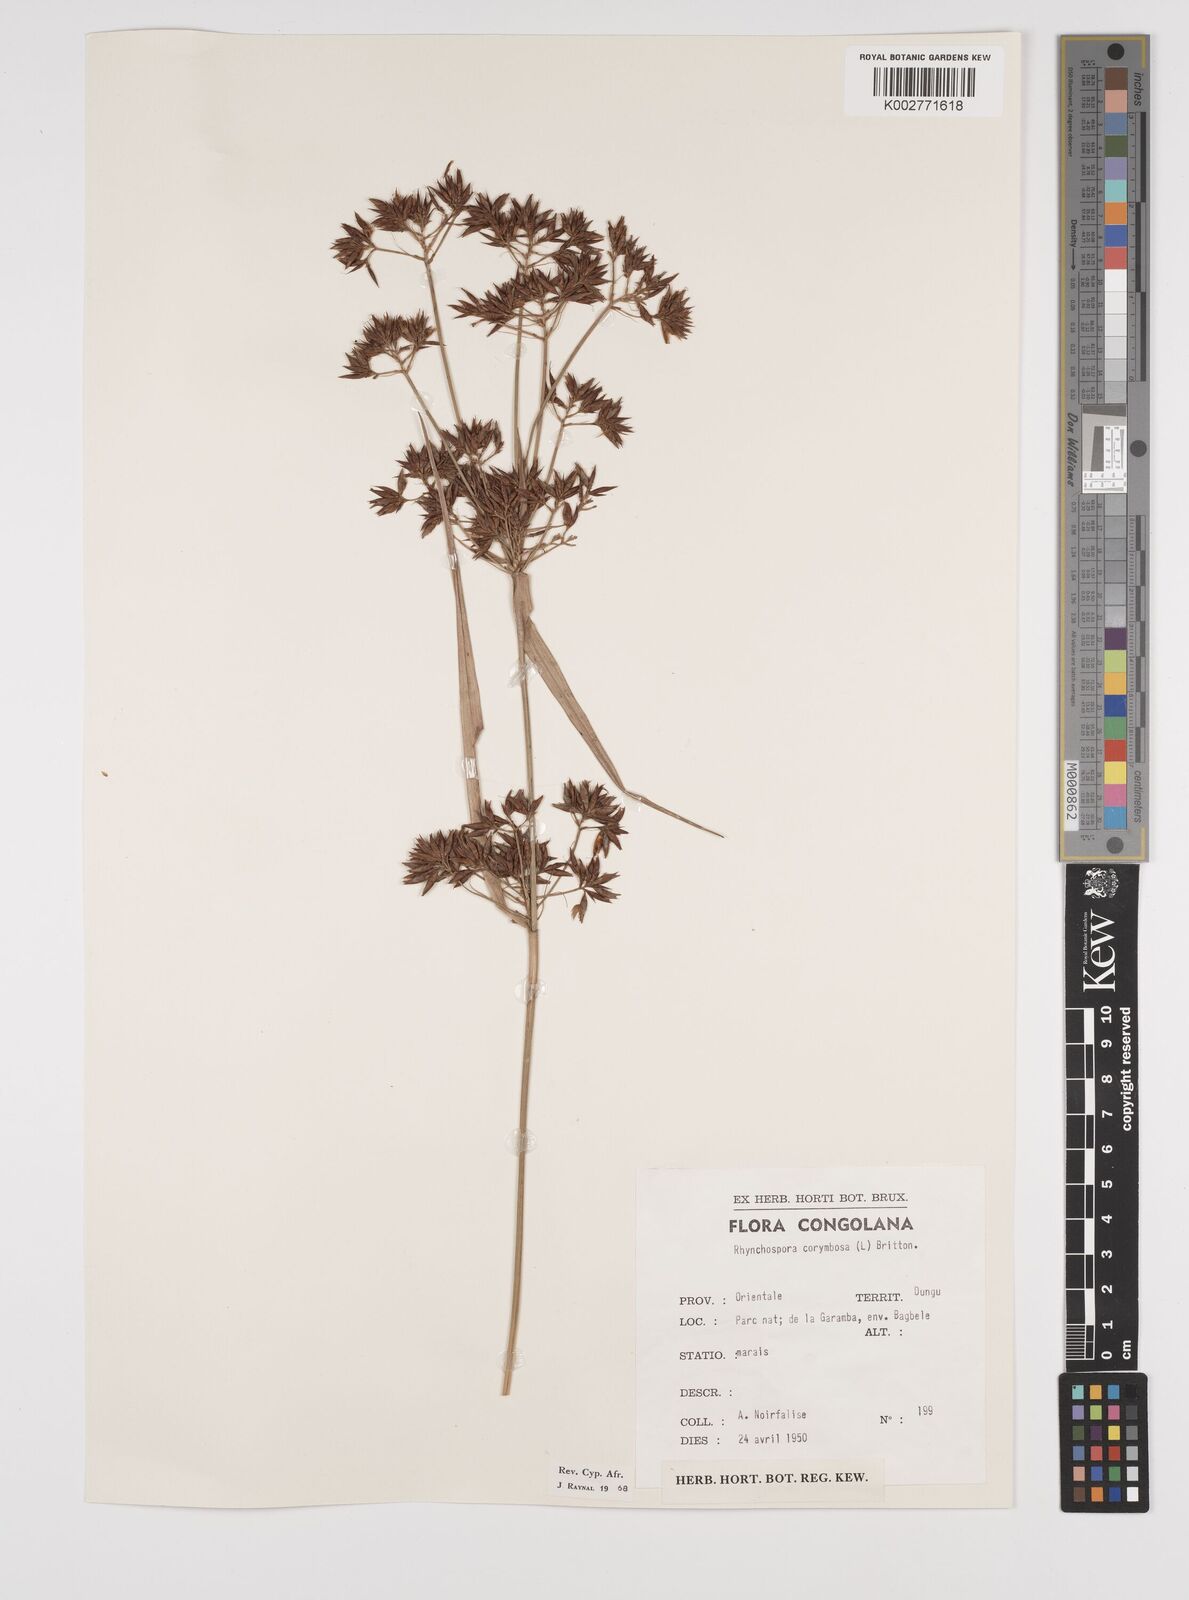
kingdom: Plantae
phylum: Tracheophyta
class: Liliopsida
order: Poales
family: Cyperaceae
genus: Rhynchospora
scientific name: Rhynchospora corymbosa
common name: Golden beak sedge
